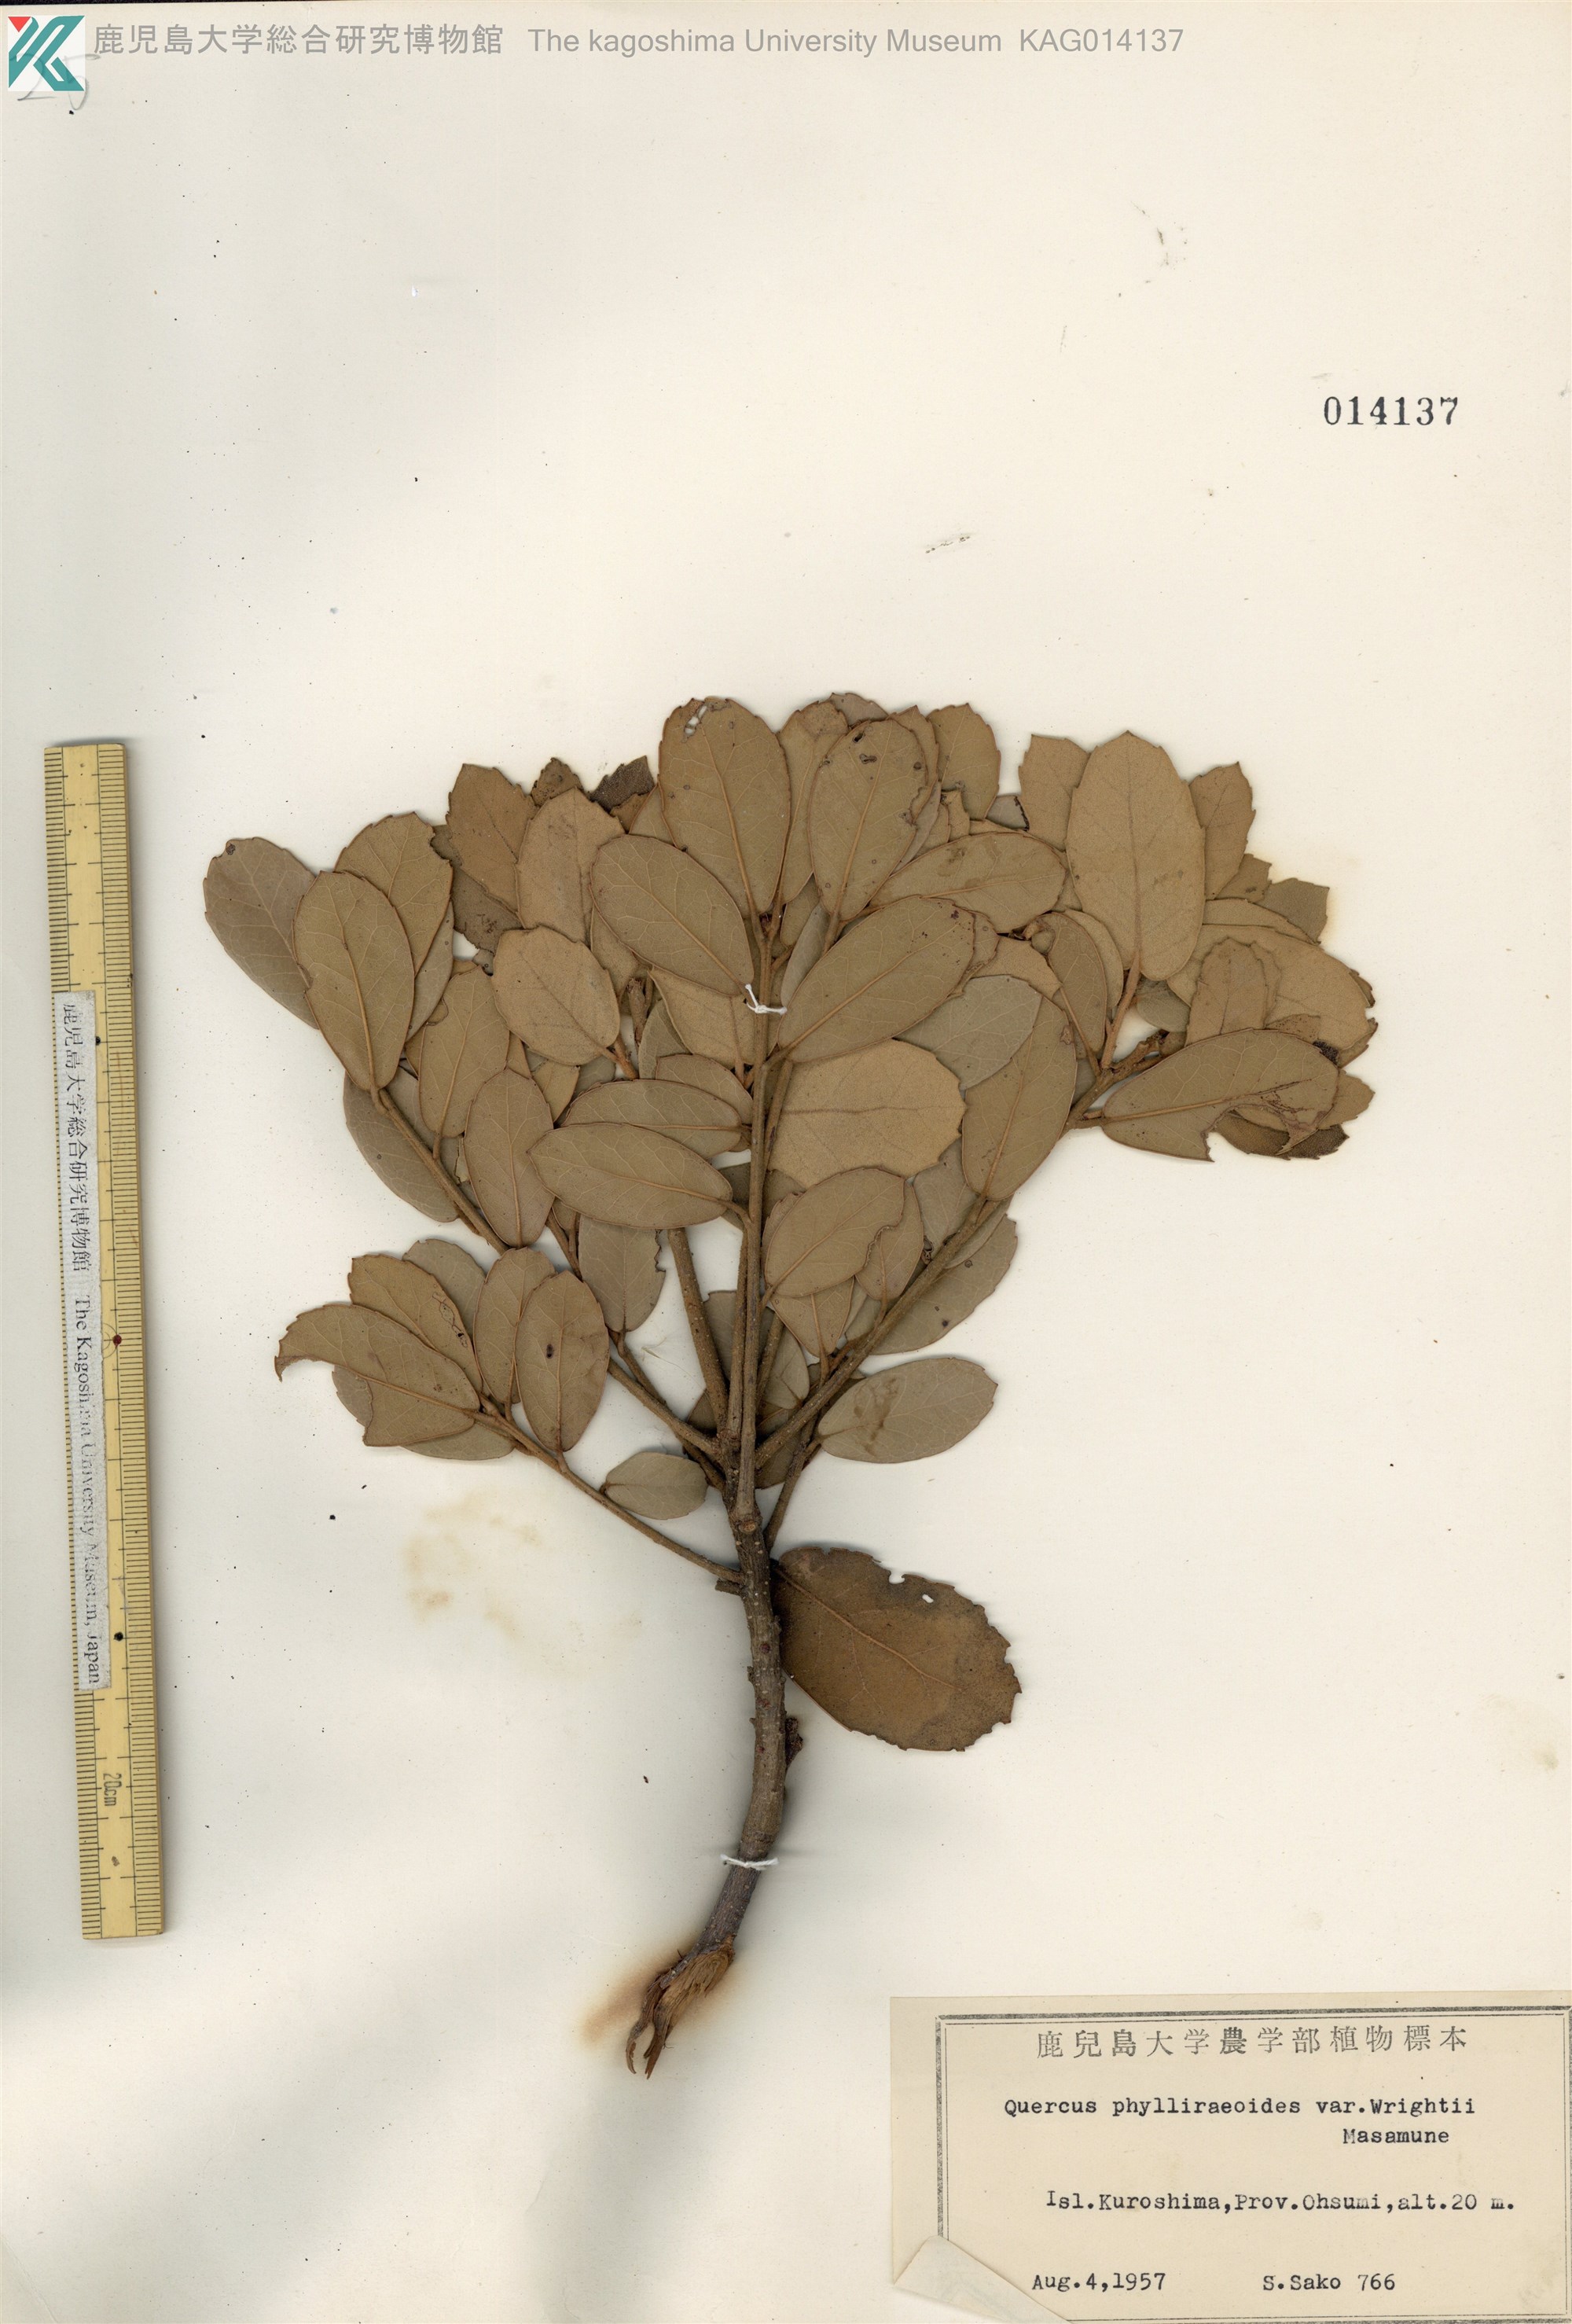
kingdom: Plantae
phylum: Tracheophyta
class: Magnoliopsida
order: Fagales
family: Fagaceae
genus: Quercus
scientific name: Quercus phillyreoides
